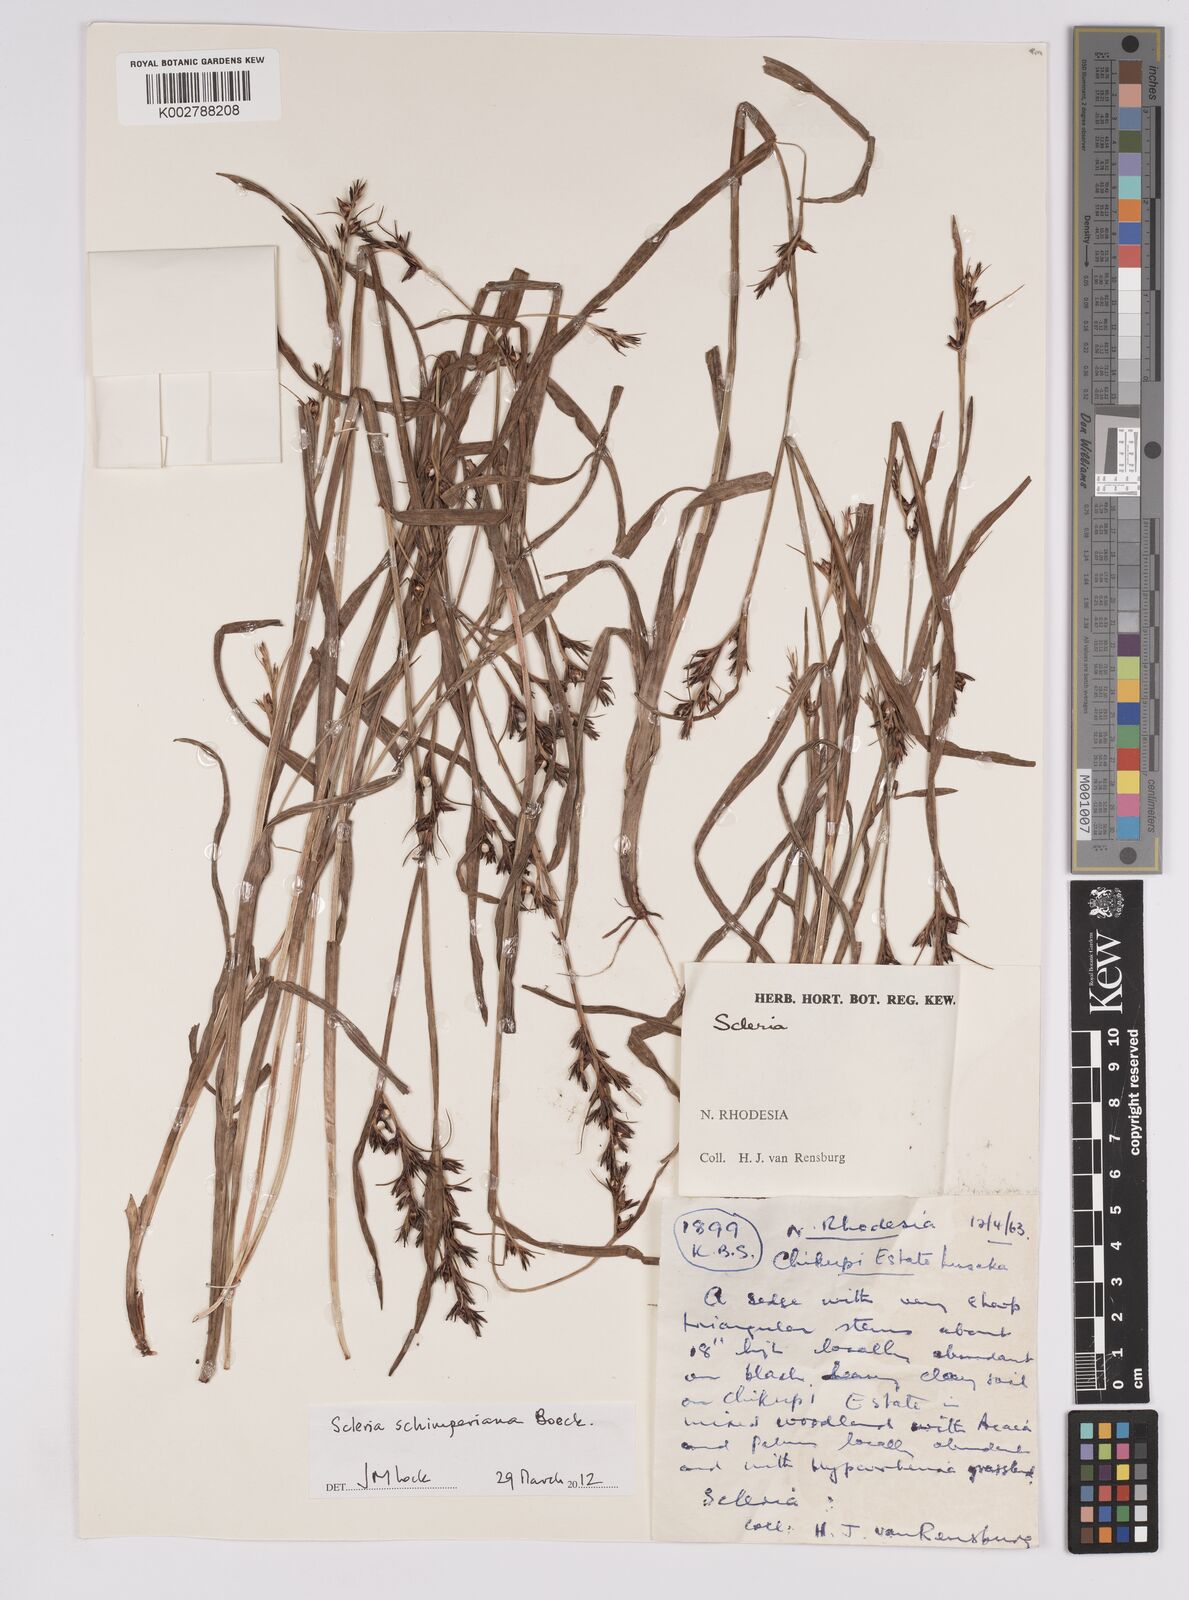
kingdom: Plantae
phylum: Tracheophyta
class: Liliopsida
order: Poales
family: Cyperaceae
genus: Scleria
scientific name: Scleria schimperiana
